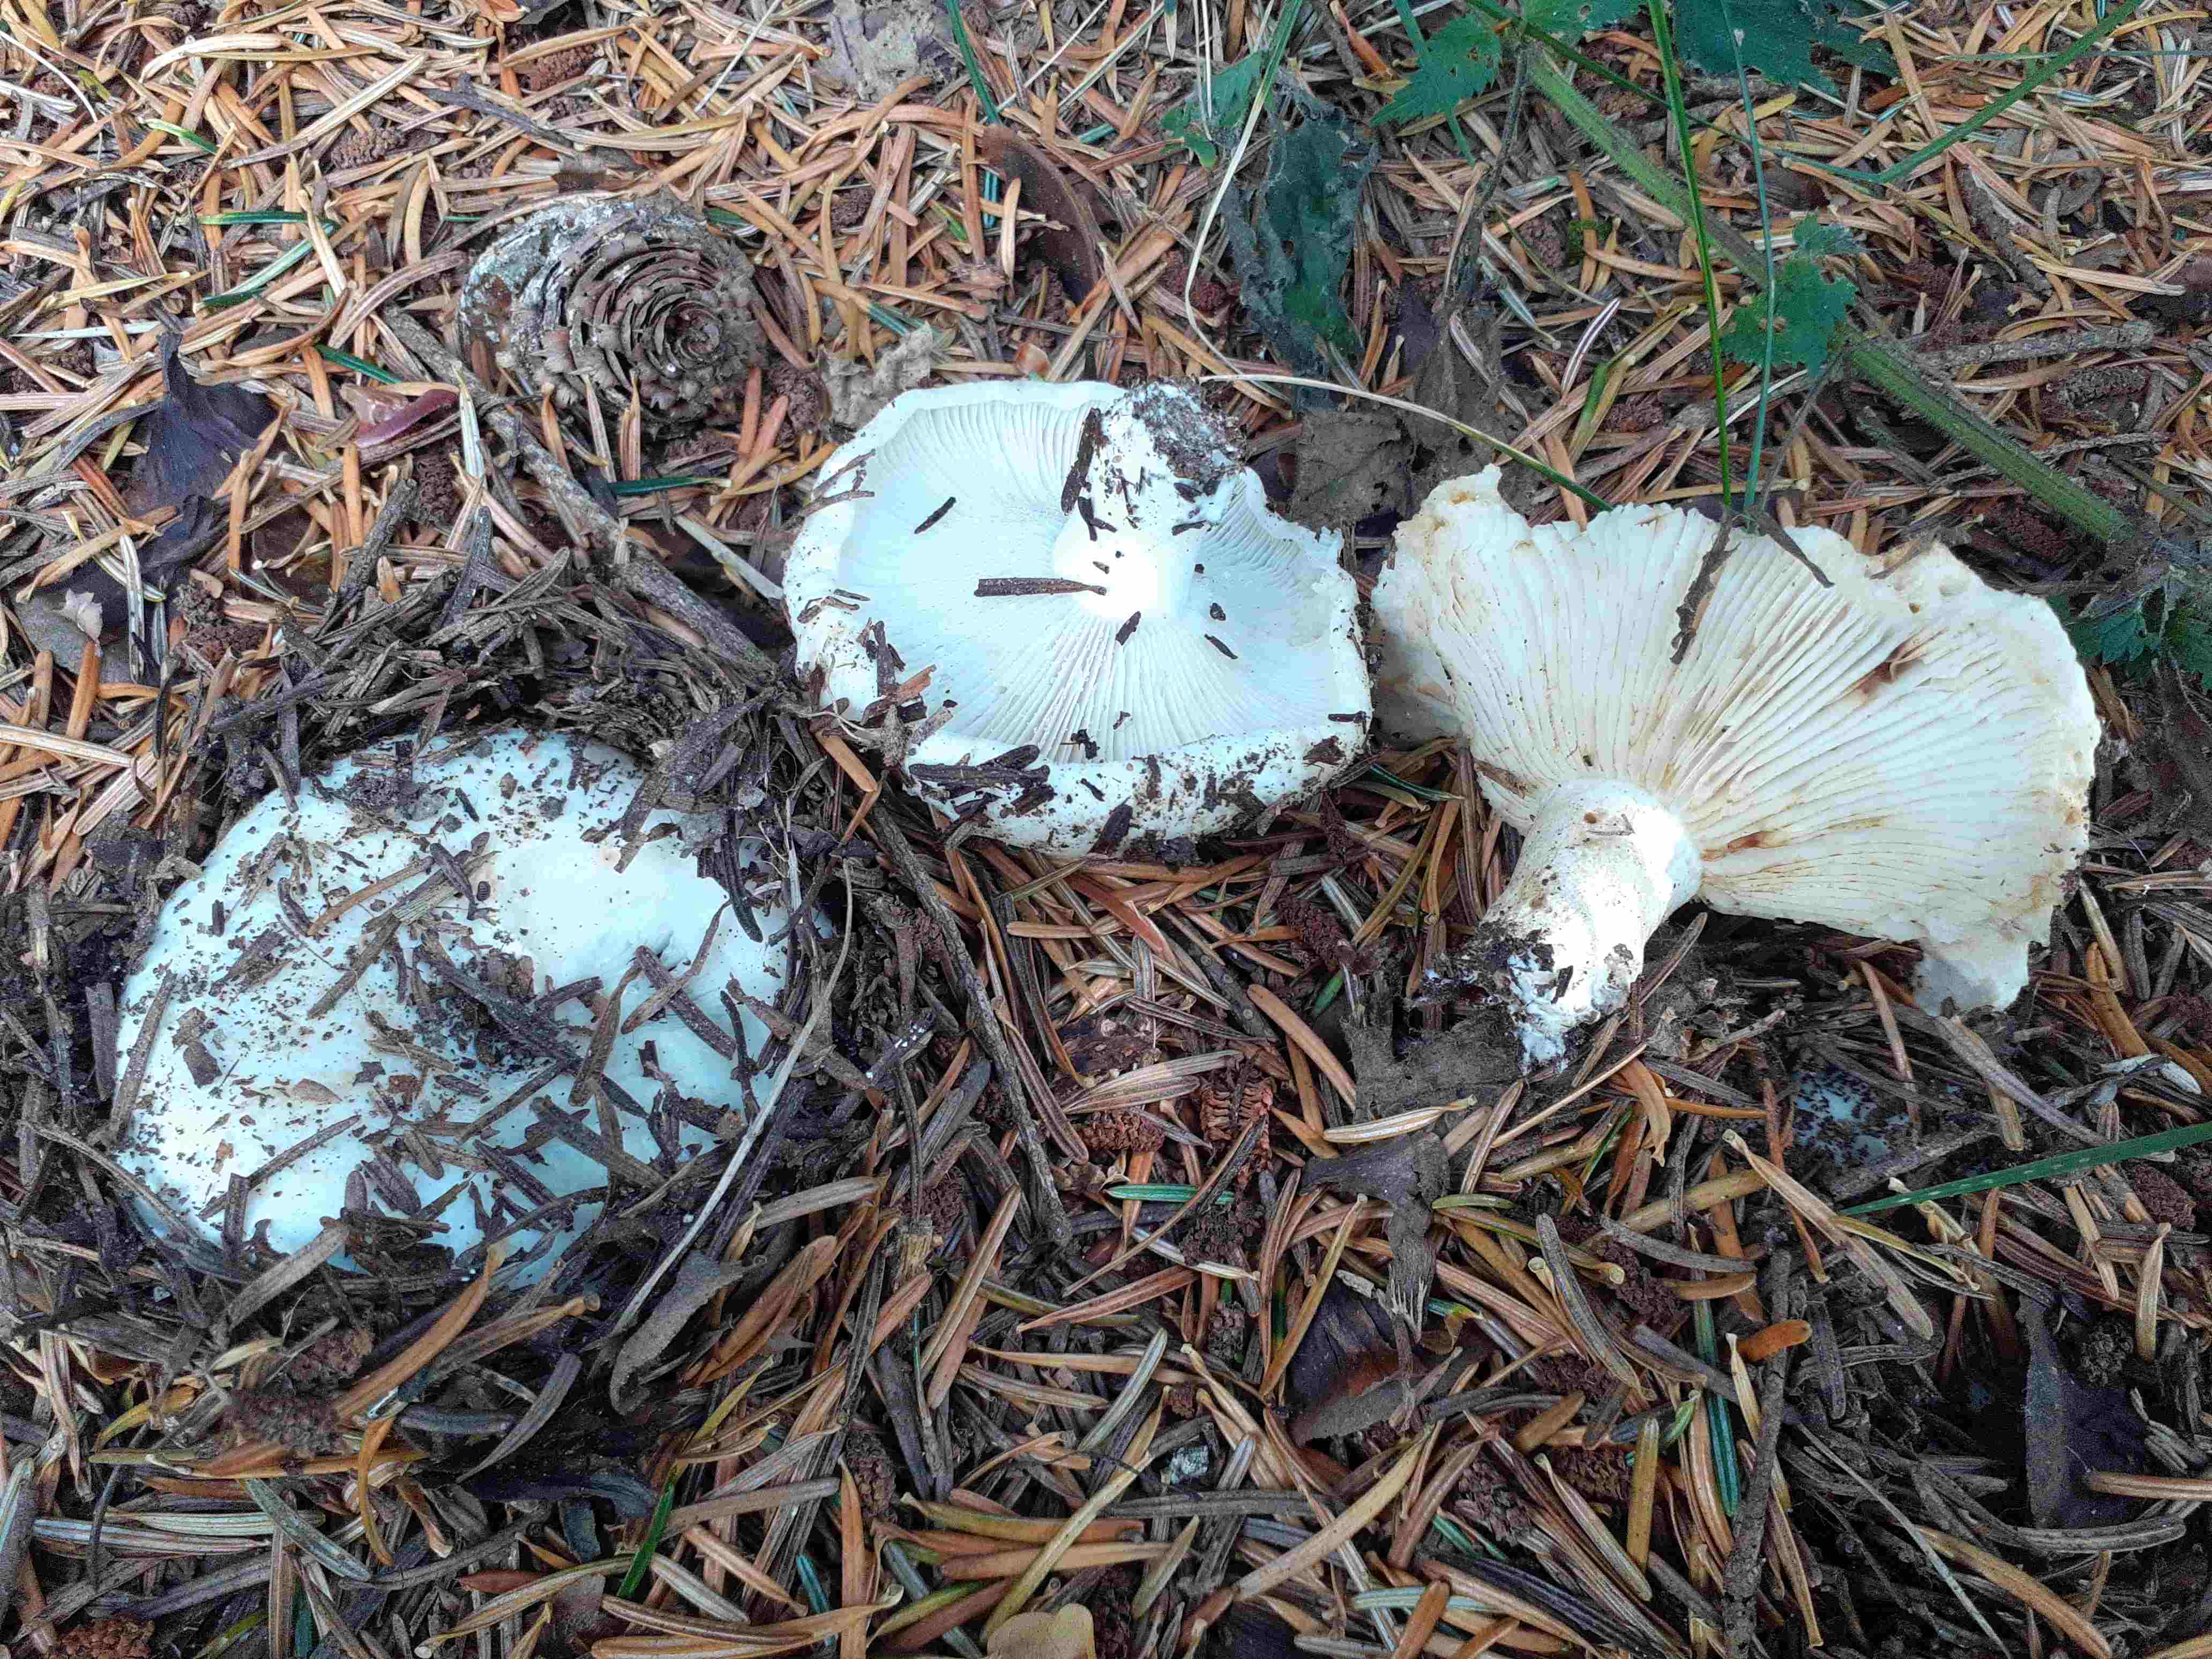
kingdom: Fungi
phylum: Basidiomycota
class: Agaricomycetes
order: Russulales
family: Russulaceae
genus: Russula
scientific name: Russula delica
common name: almindelig tragt-skørhat
